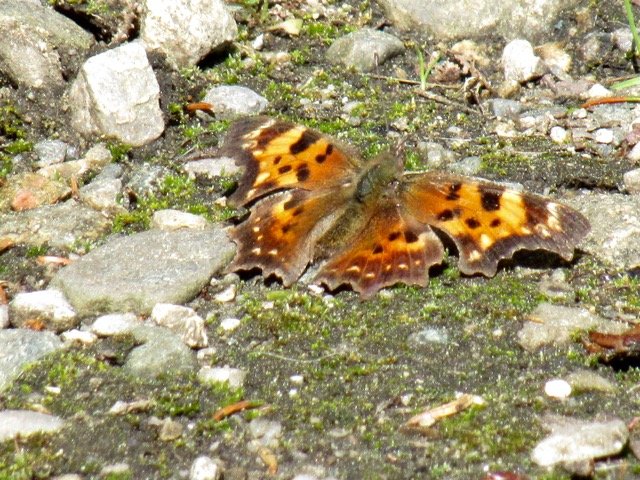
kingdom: Animalia
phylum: Arthropoda
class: Insecta
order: Lepidoptera
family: Nymphalidae
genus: Polygonia
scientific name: Polygonia faunus
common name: Green Comma
